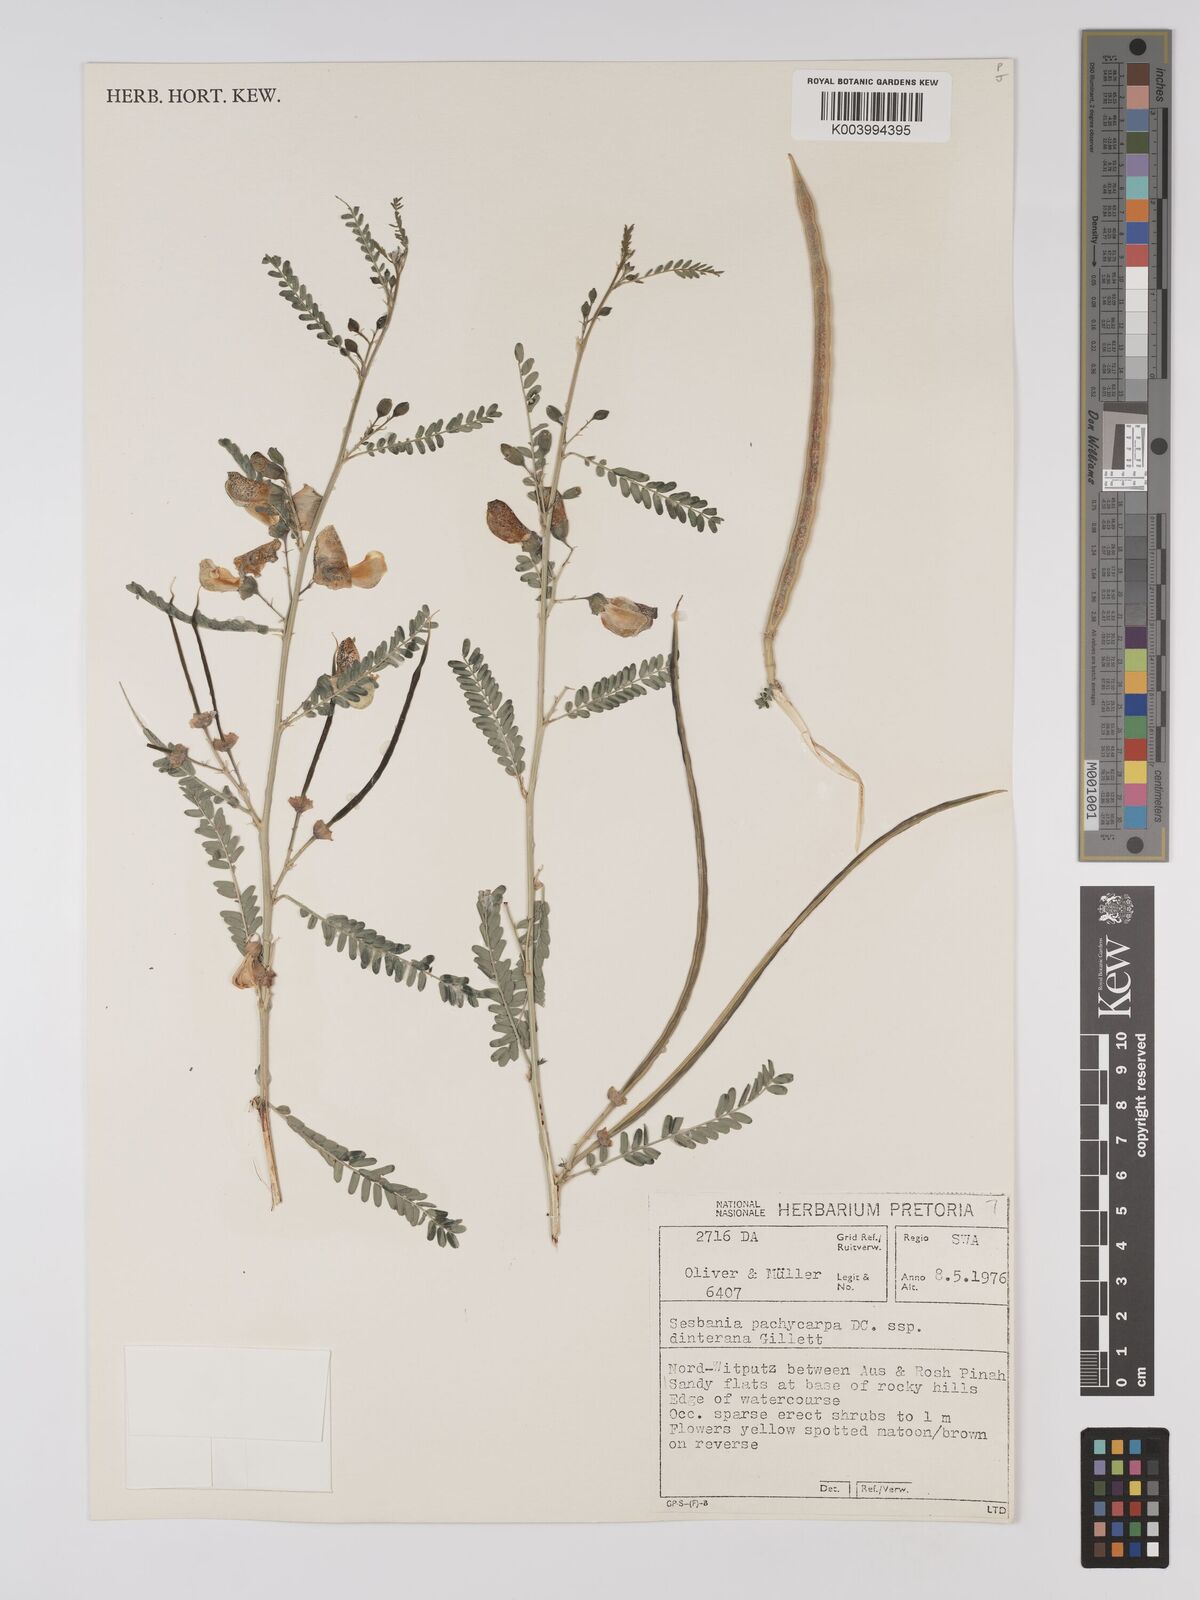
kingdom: Plantae
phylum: Tracheophyta
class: Magnoliopsida
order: Fabales
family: Fabaceae
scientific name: Fabaceae
